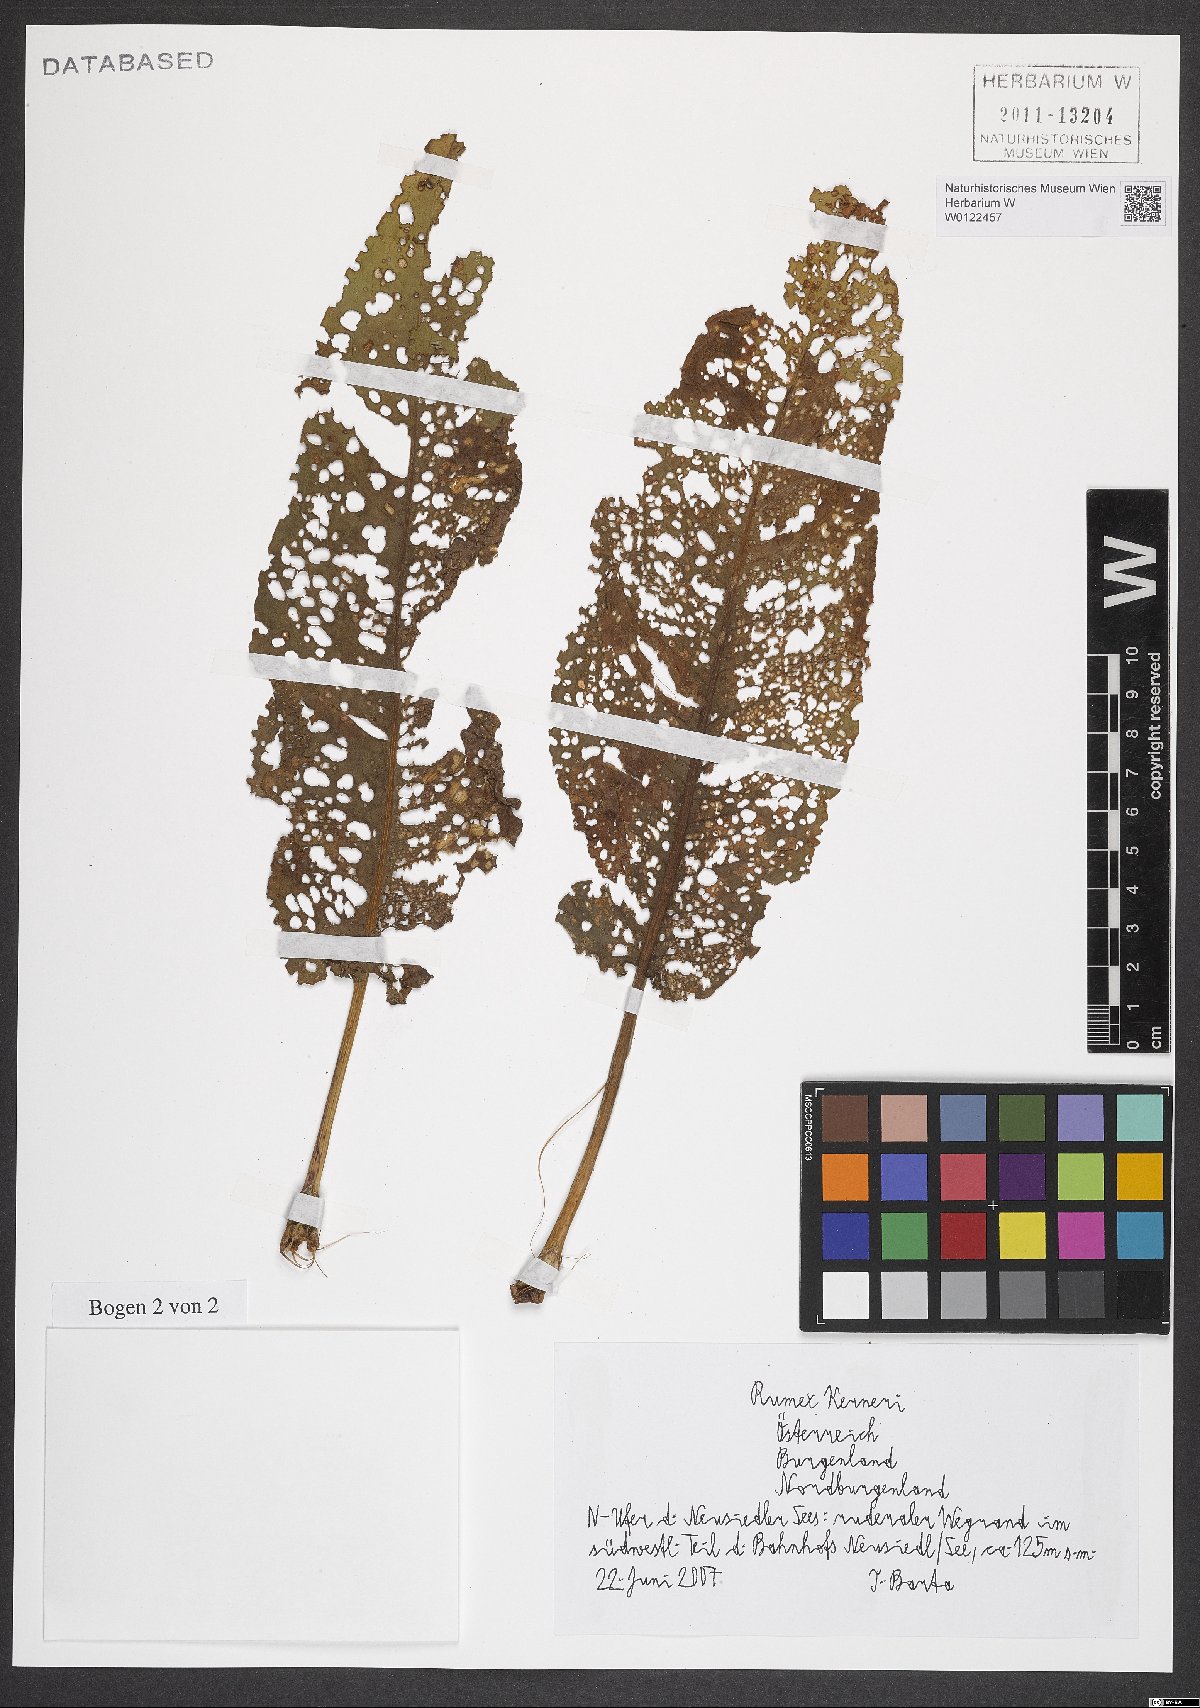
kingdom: Plantae
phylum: Tracheophyta
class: Magnoliopsida
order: Caryophyllales
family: Polygonaceae
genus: Rumex
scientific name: Rumex kerneri
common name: Kerner's dock
